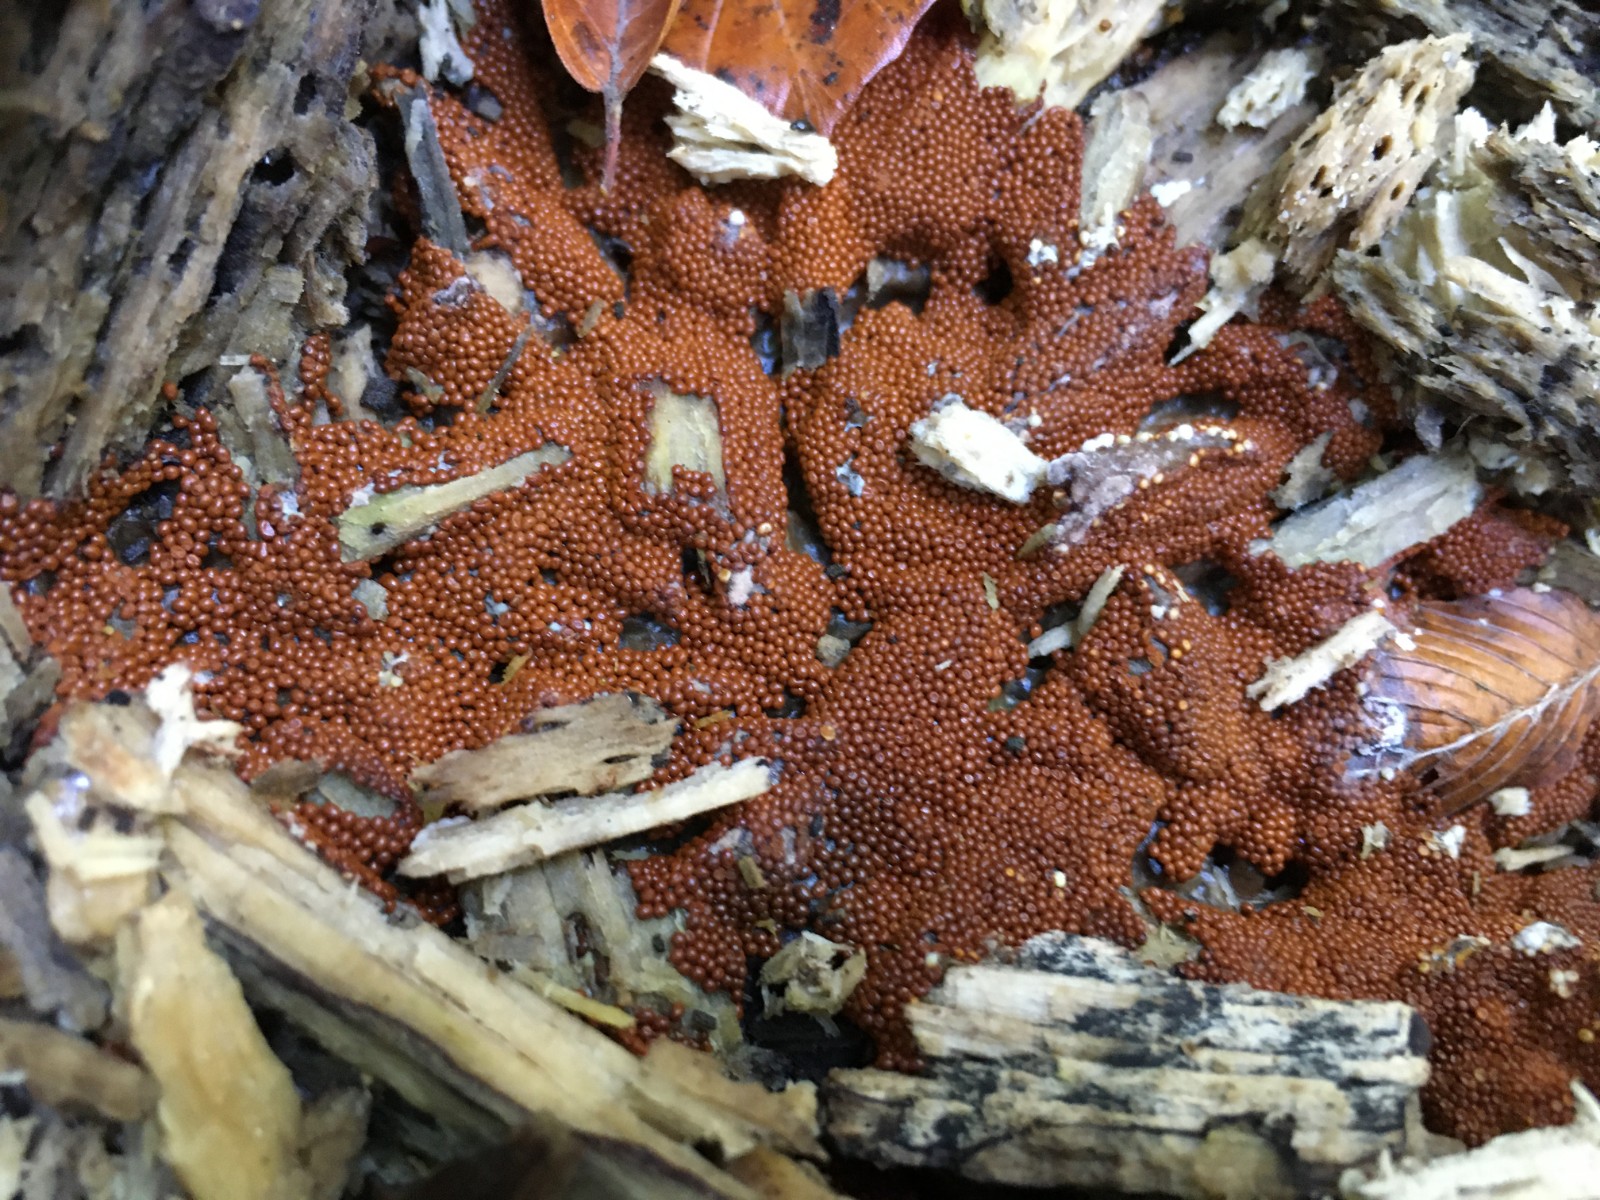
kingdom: Protozoa
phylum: Mycetozoa
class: Myxomycetes
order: Trichiales
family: Trichiaceae
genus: Trichia
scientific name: Trichia scabra
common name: tæppe-hårbold
